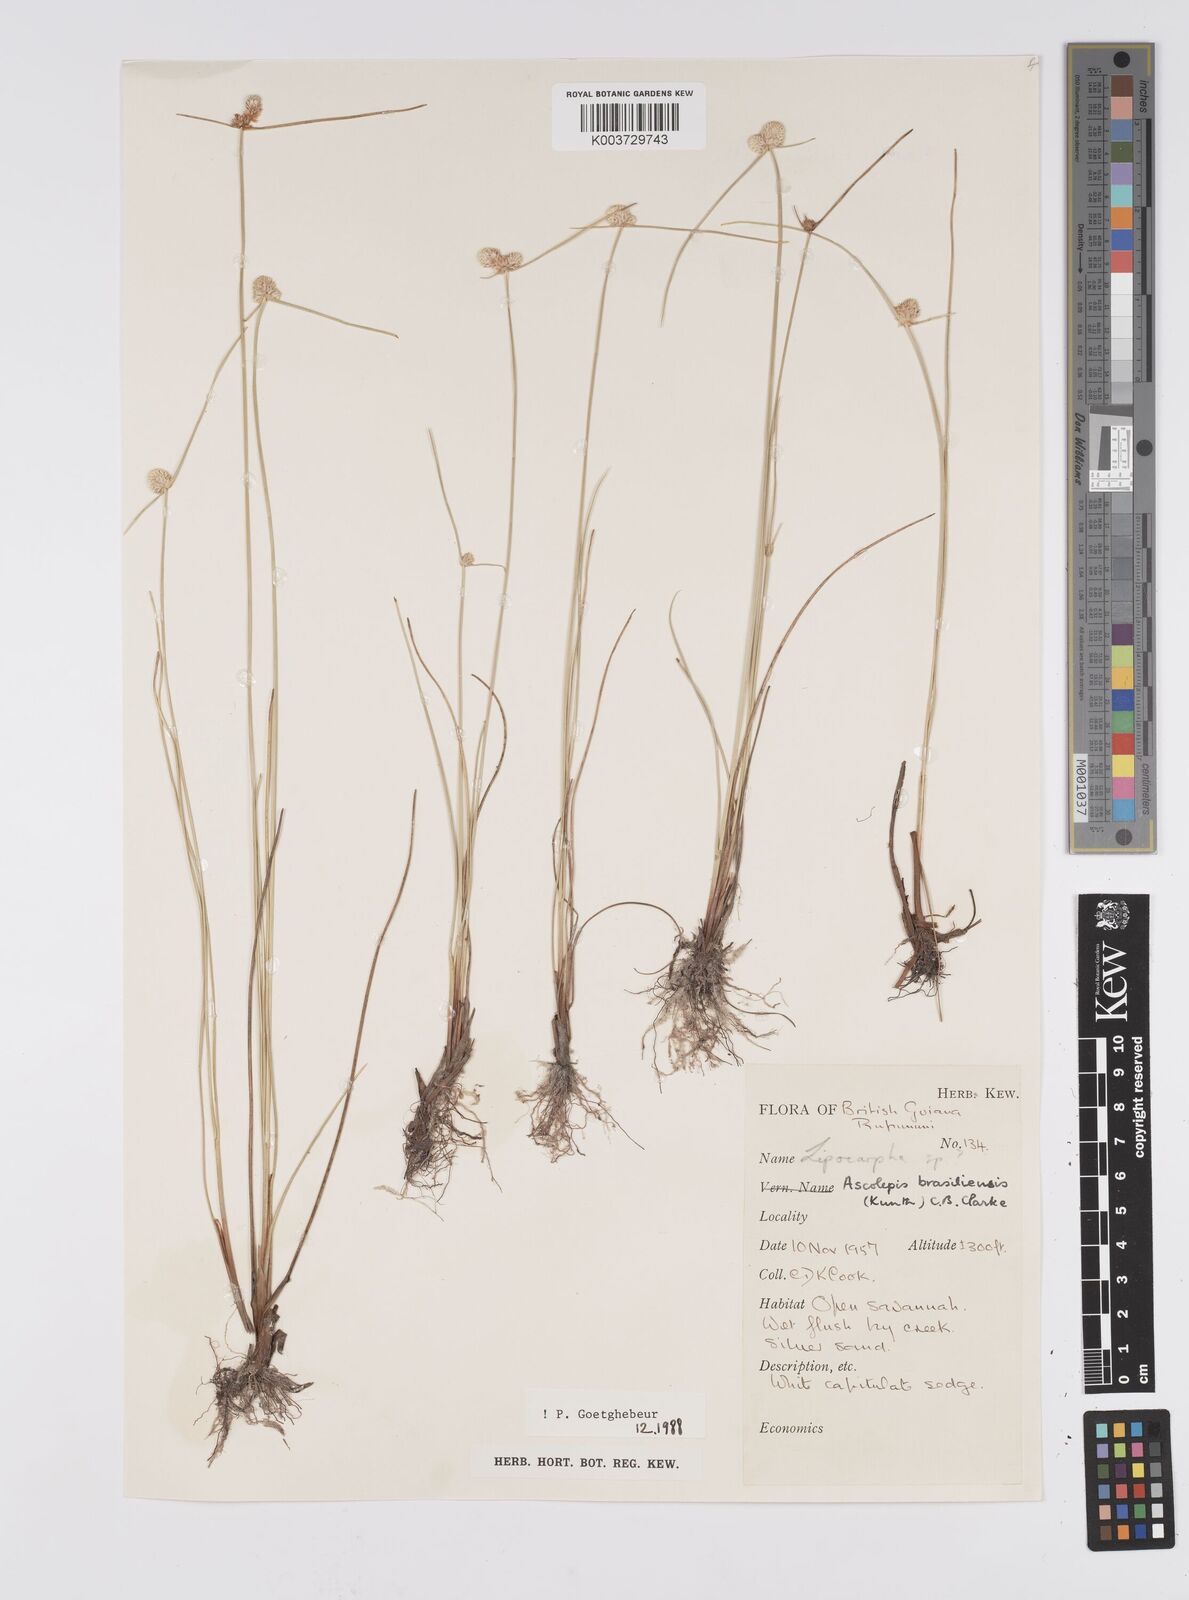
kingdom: Plantae
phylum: Tracheophyta
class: Liliopsida
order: Poales
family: Cyperaceae
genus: Cyperus
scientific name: Cyperus brasiliensis
